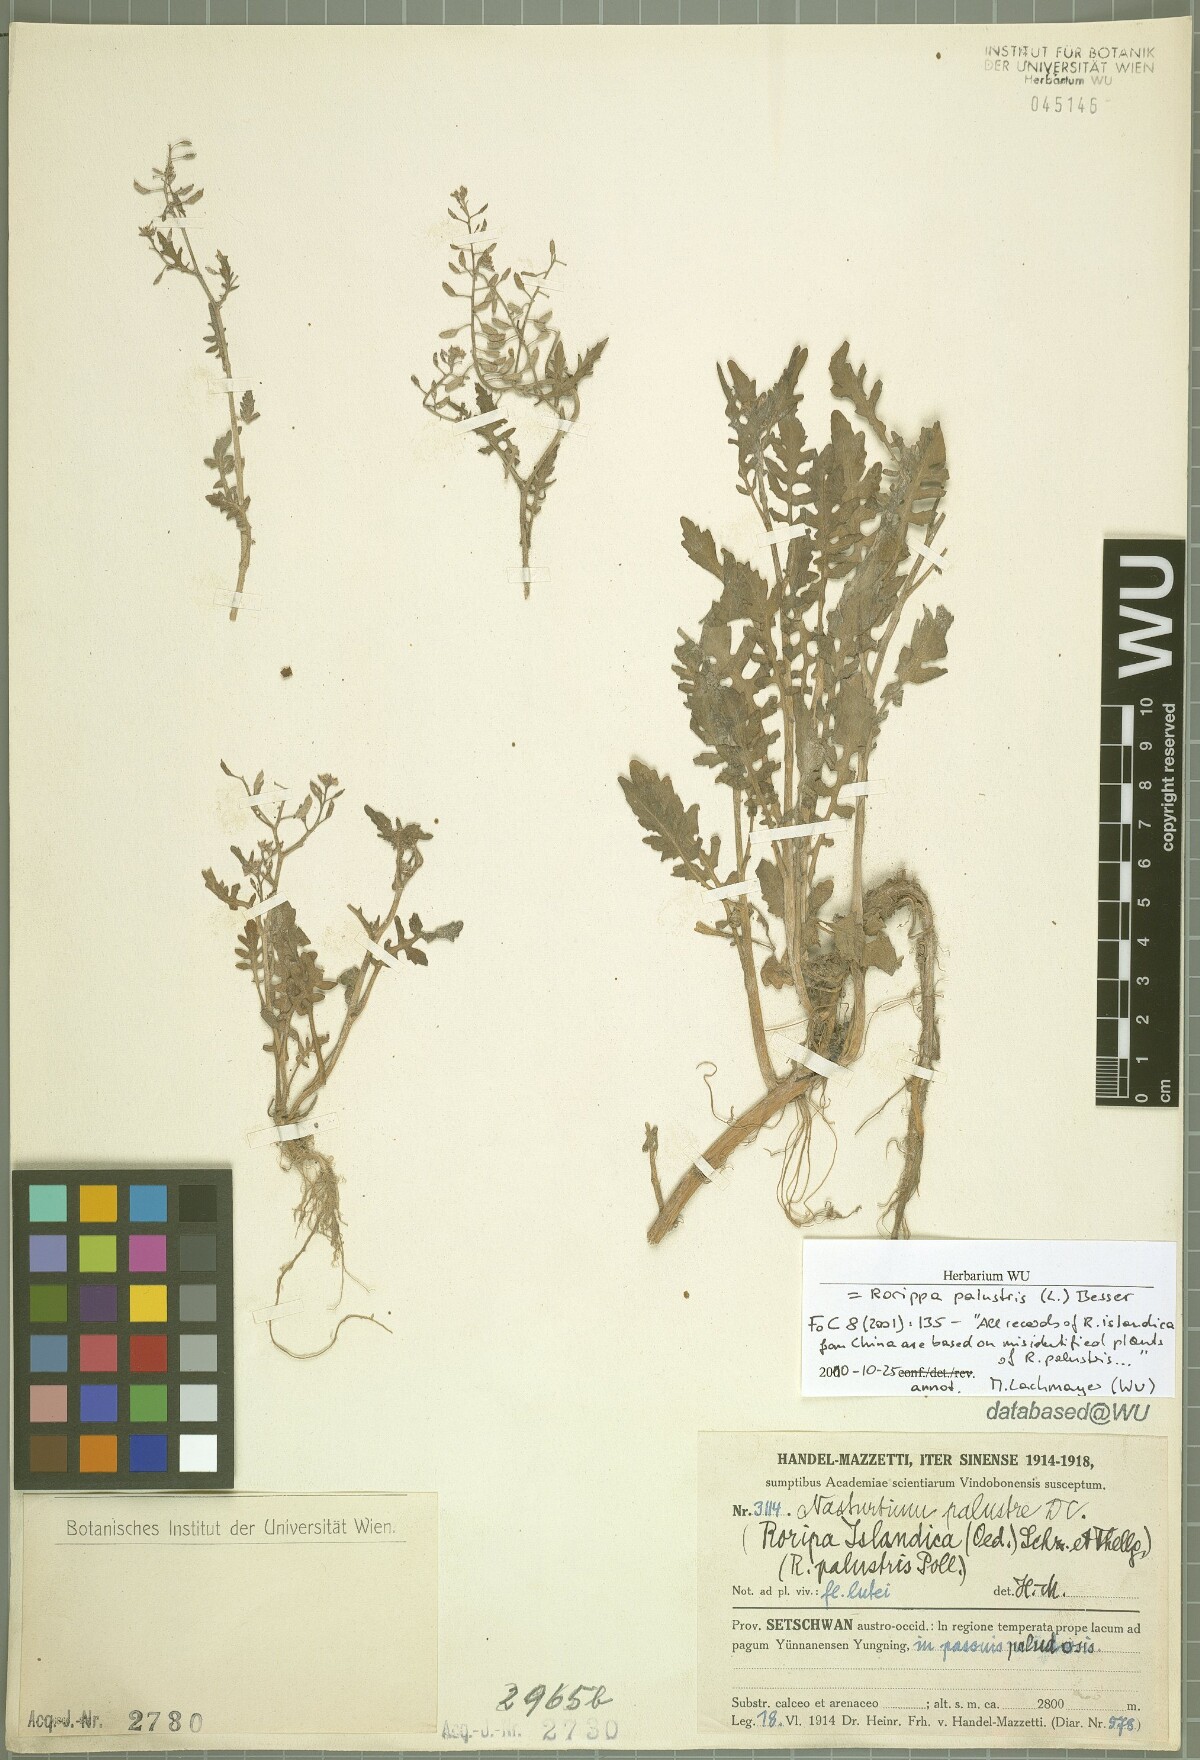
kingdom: Plantae
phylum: Tracheophyta
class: Magnoliopsida
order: Brassicales
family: Brassicaceae
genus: Rorippa
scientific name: Rorippa palustris
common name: Marsh yellow-cress
